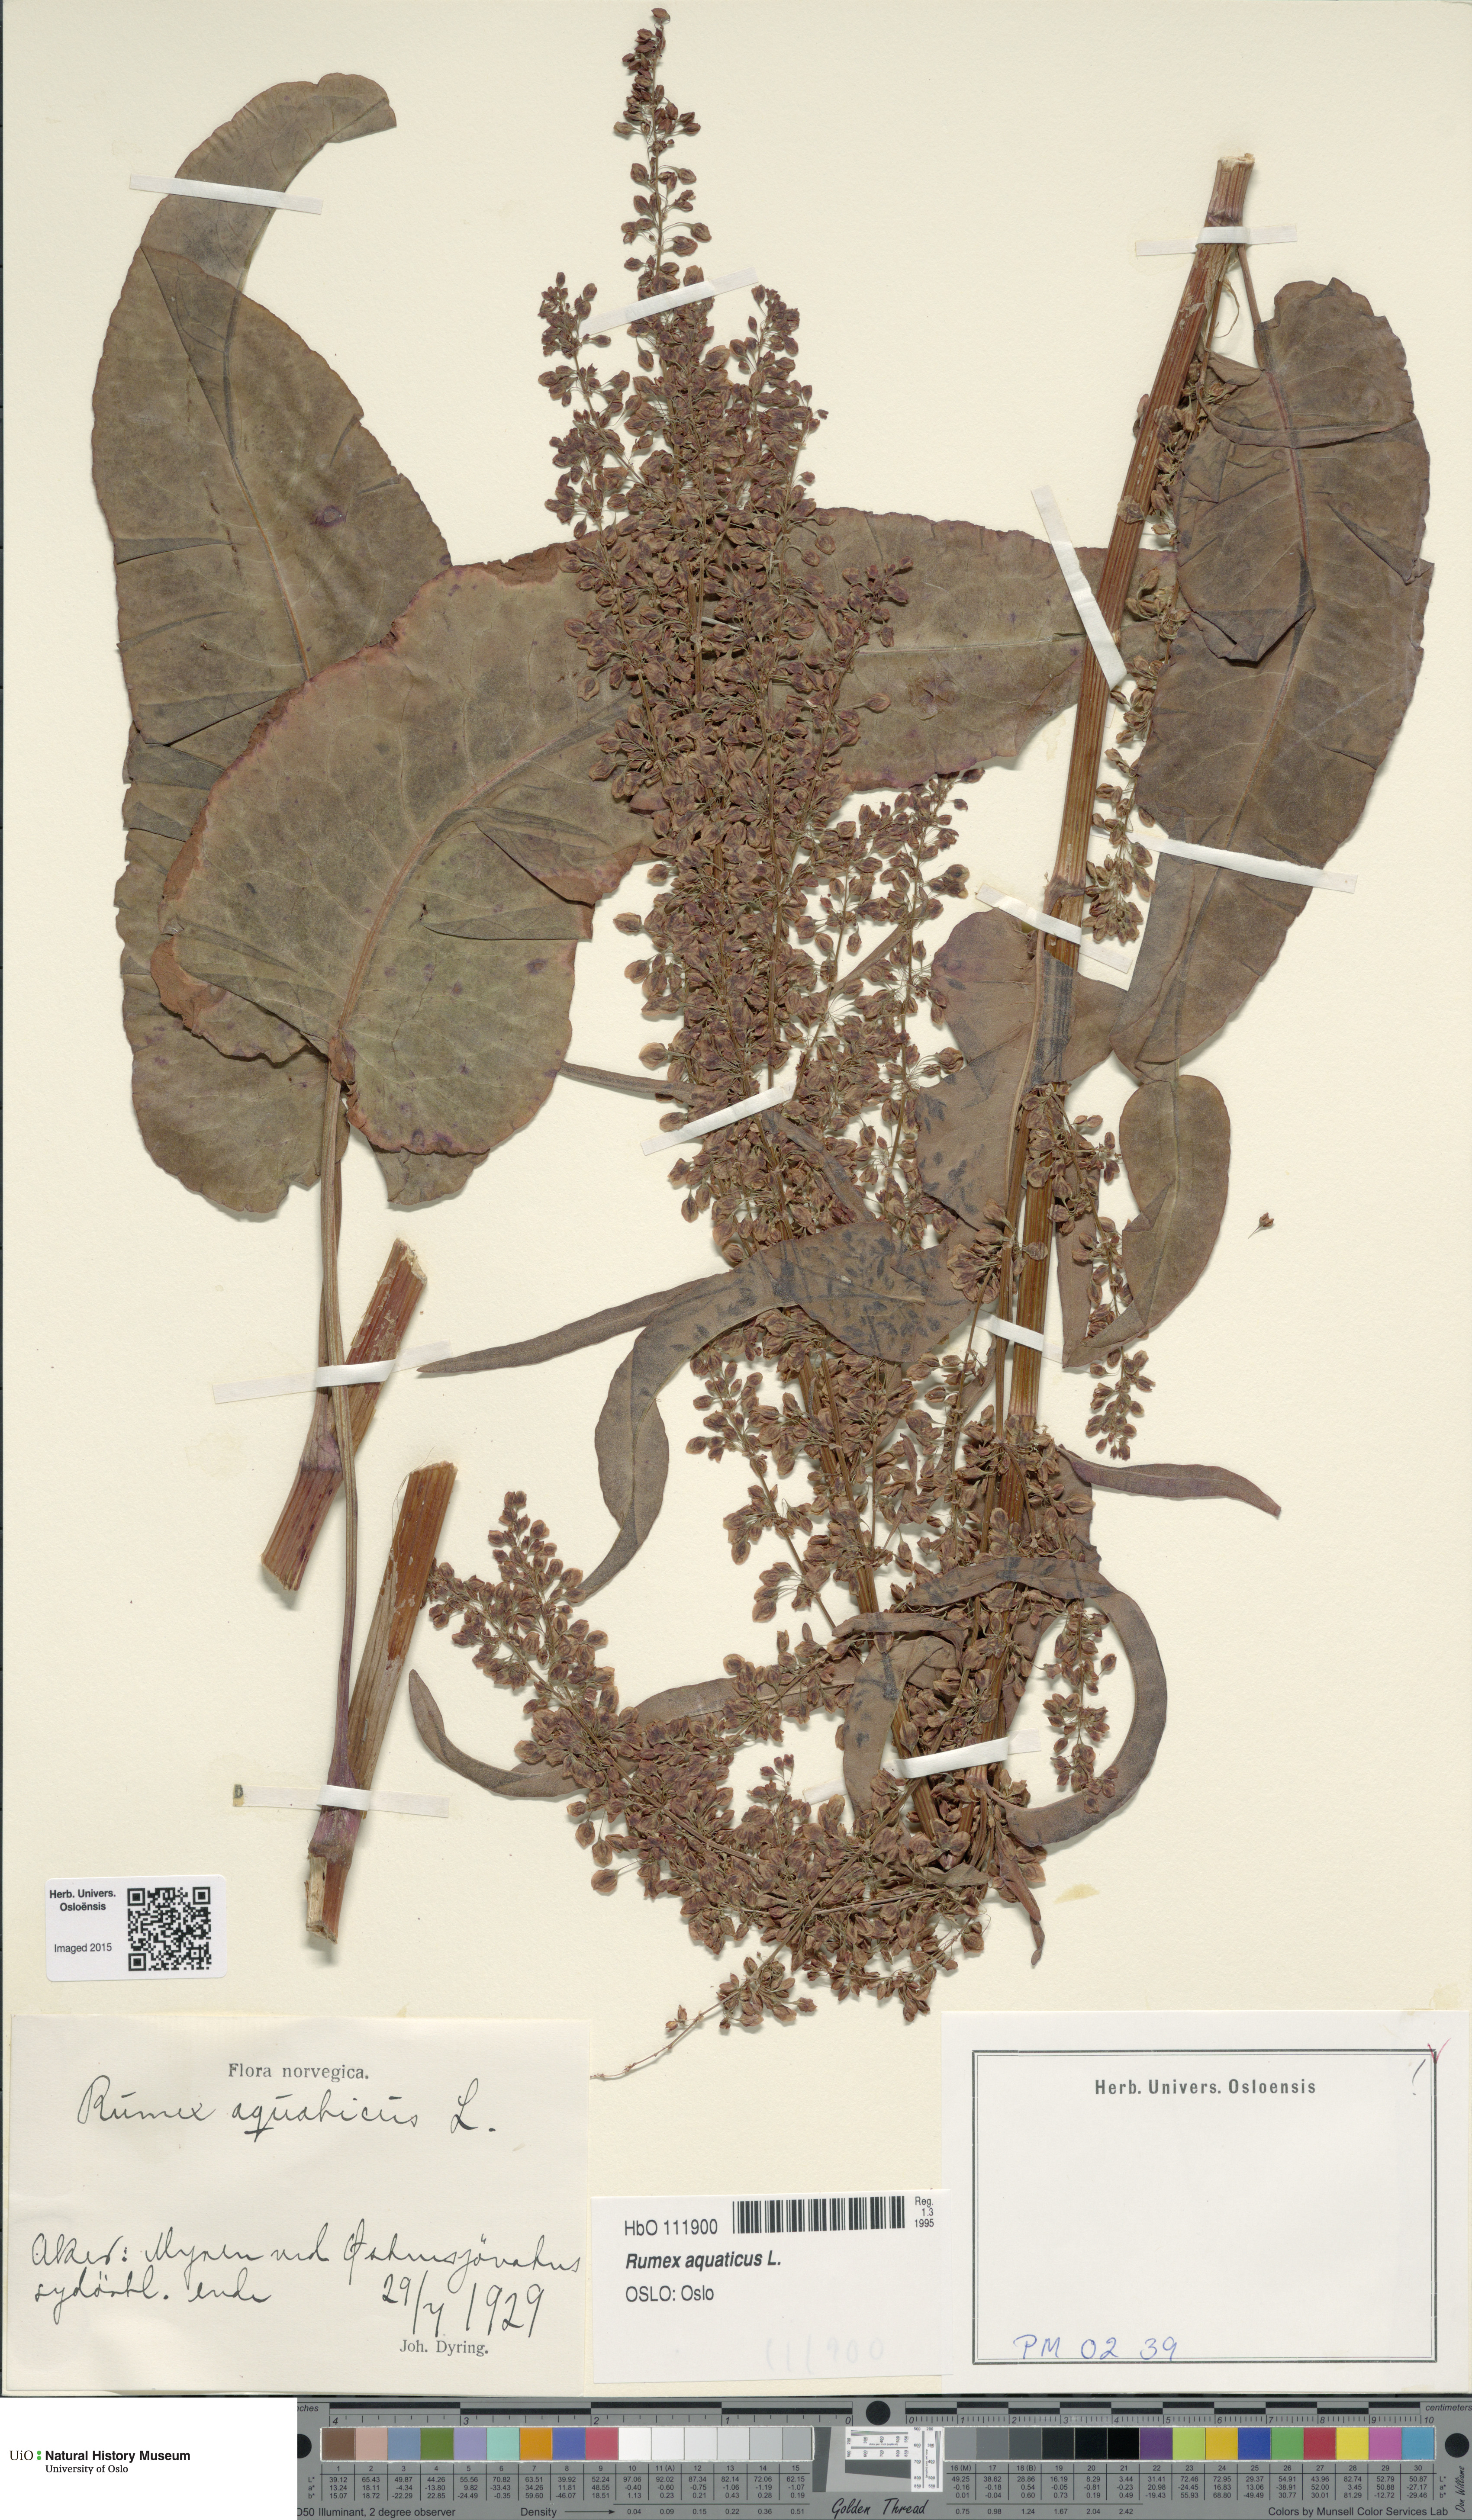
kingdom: Plantae
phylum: Tracheophyta
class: Magnoliopsida
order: Caryophyllales
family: Polygonaceae
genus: Rumex
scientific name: Rumex aquaticus
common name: Scottish dock
